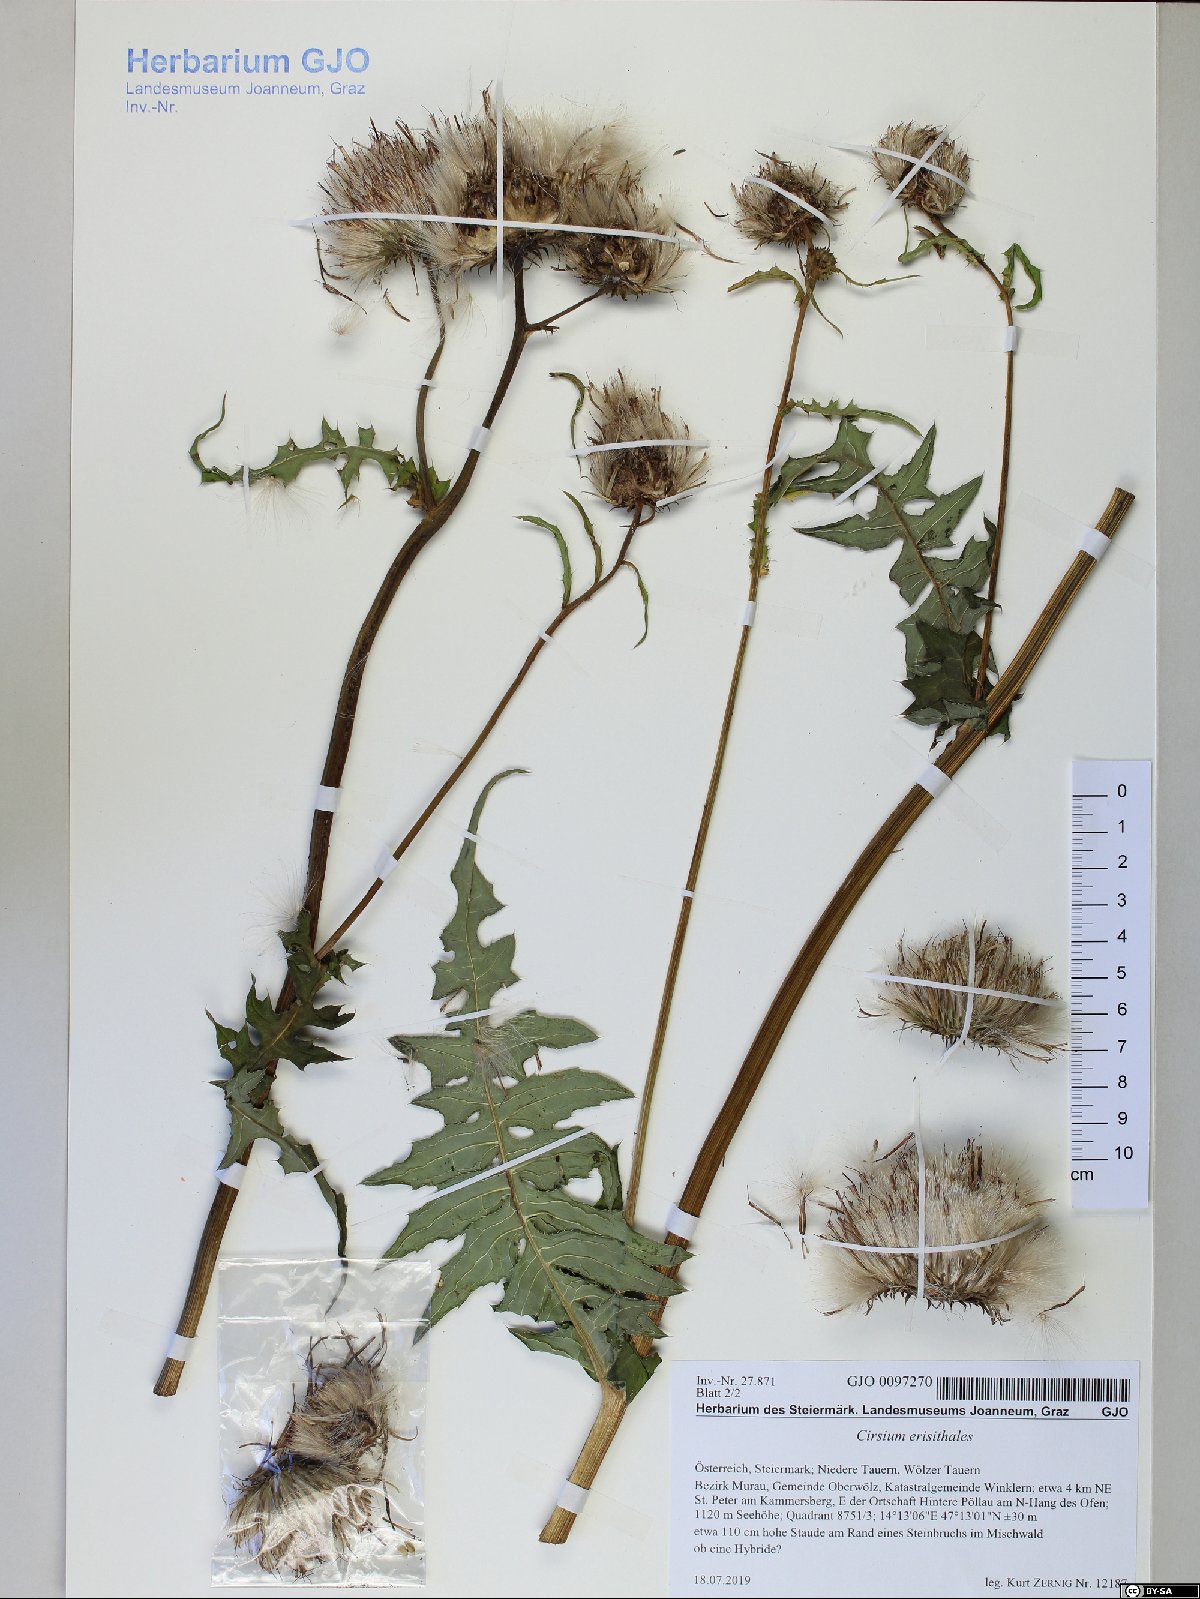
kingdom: Plantae
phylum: Tracheophyta
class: Magnoliopsida
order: Asterales
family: Asteraceae
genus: Cirsium
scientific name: Cirsium erisithales
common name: Yellow thistle
